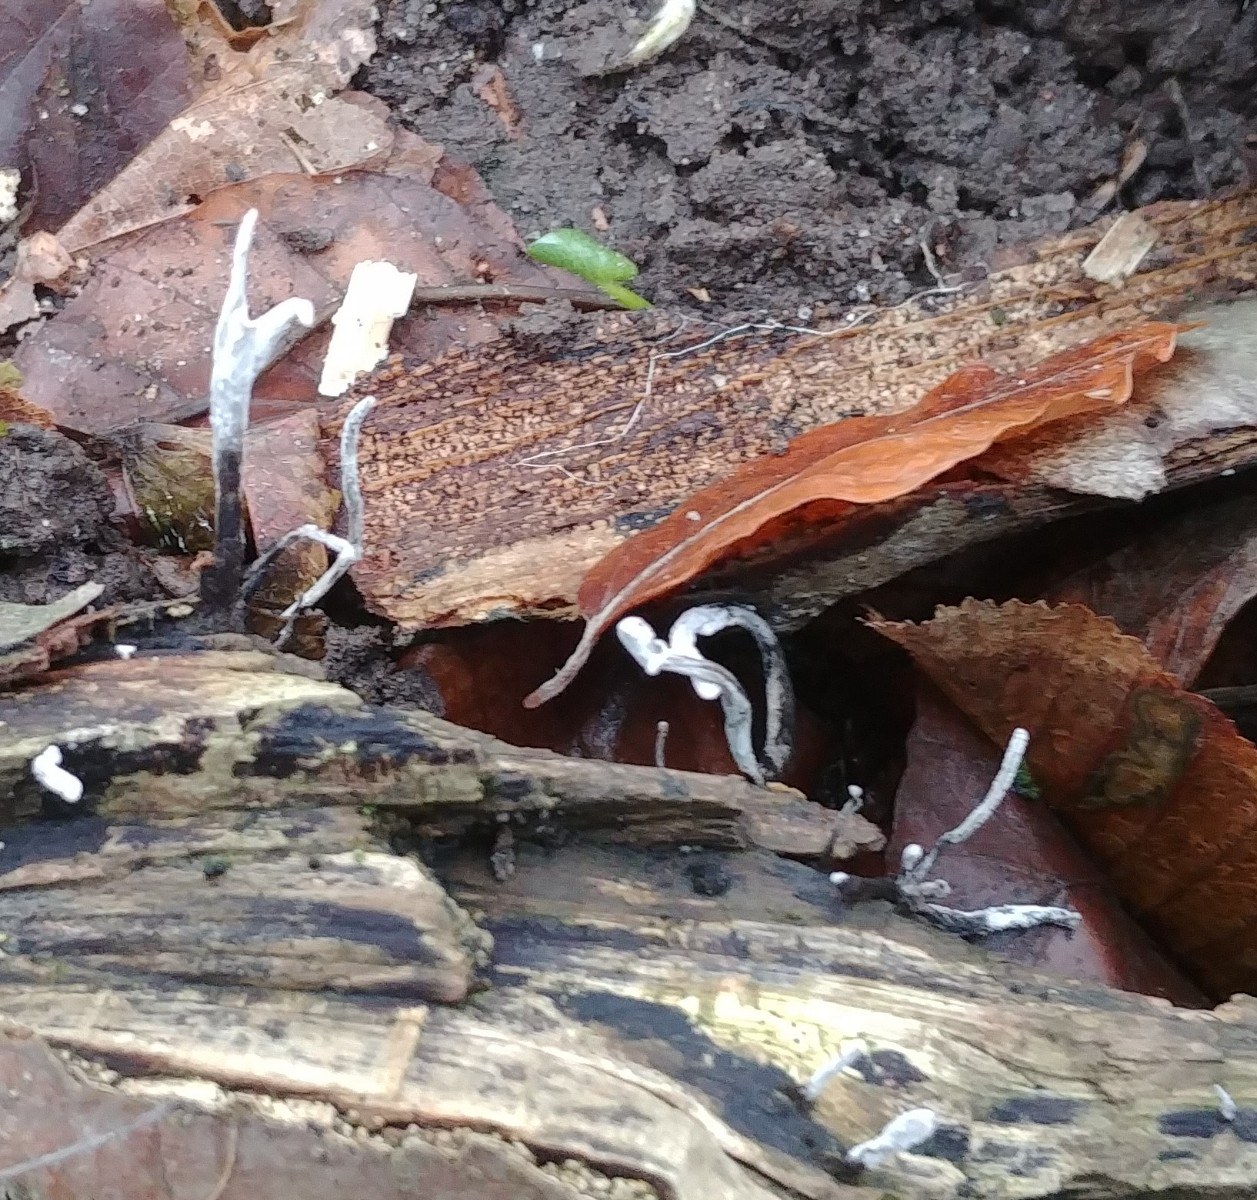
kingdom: Fungi
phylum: Ascomycota
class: Sordariomycetes
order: Xylariales
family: Xylariaceae
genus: Xylaria
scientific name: Xylaria hypoxylon
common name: grenet stødsvamp
